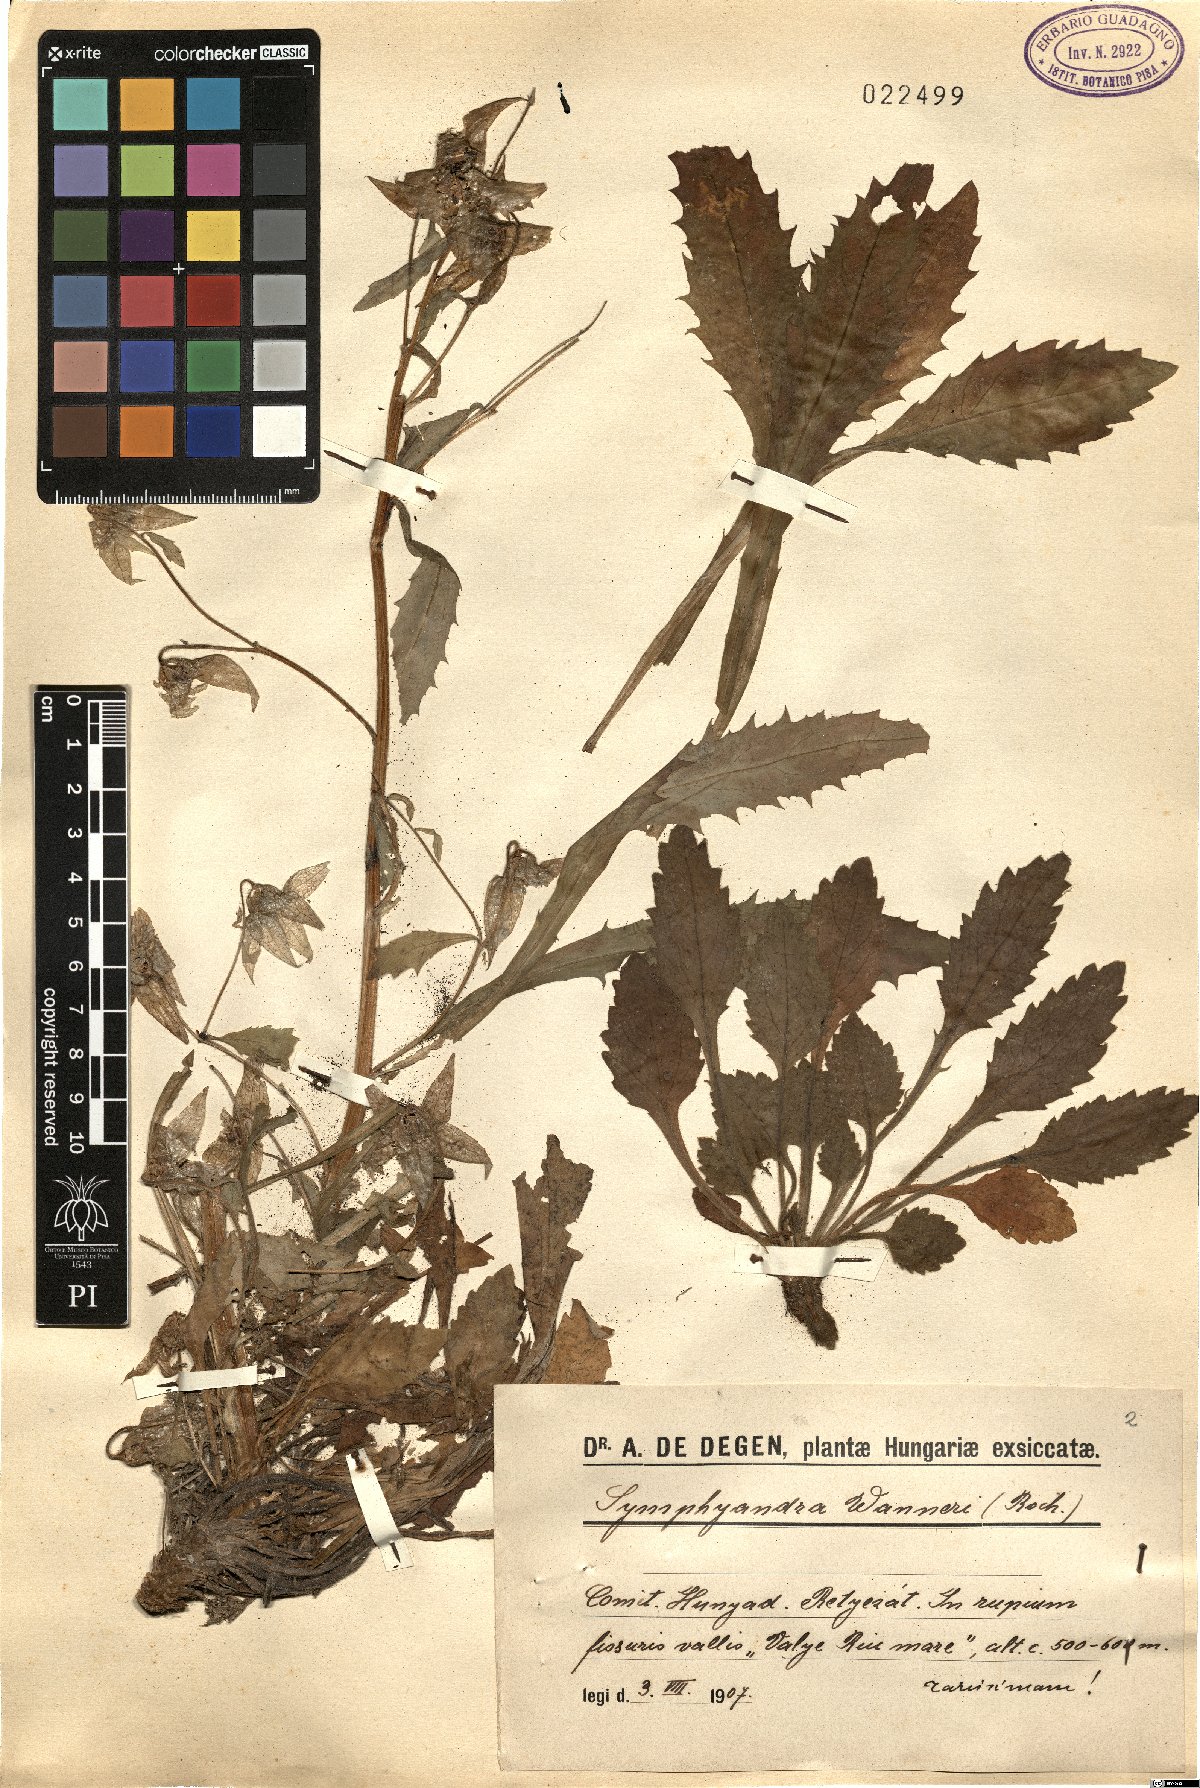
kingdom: Plantae
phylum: Tracheophyta
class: Magnoliopsida
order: Asterales
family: Campanulaceae
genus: Campanula
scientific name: Campanula wanneri
